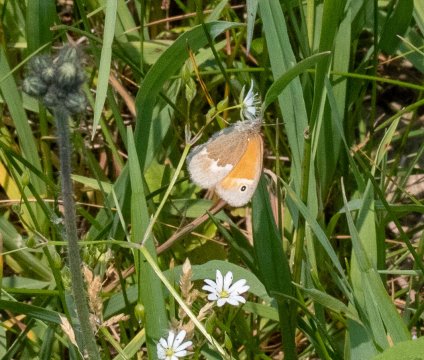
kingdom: Animalia
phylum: Arthropoda
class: Insecta
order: Lepidoptera
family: Nymphalidae
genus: Coenonympha
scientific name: Coenonympha tullia
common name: Large Heath
